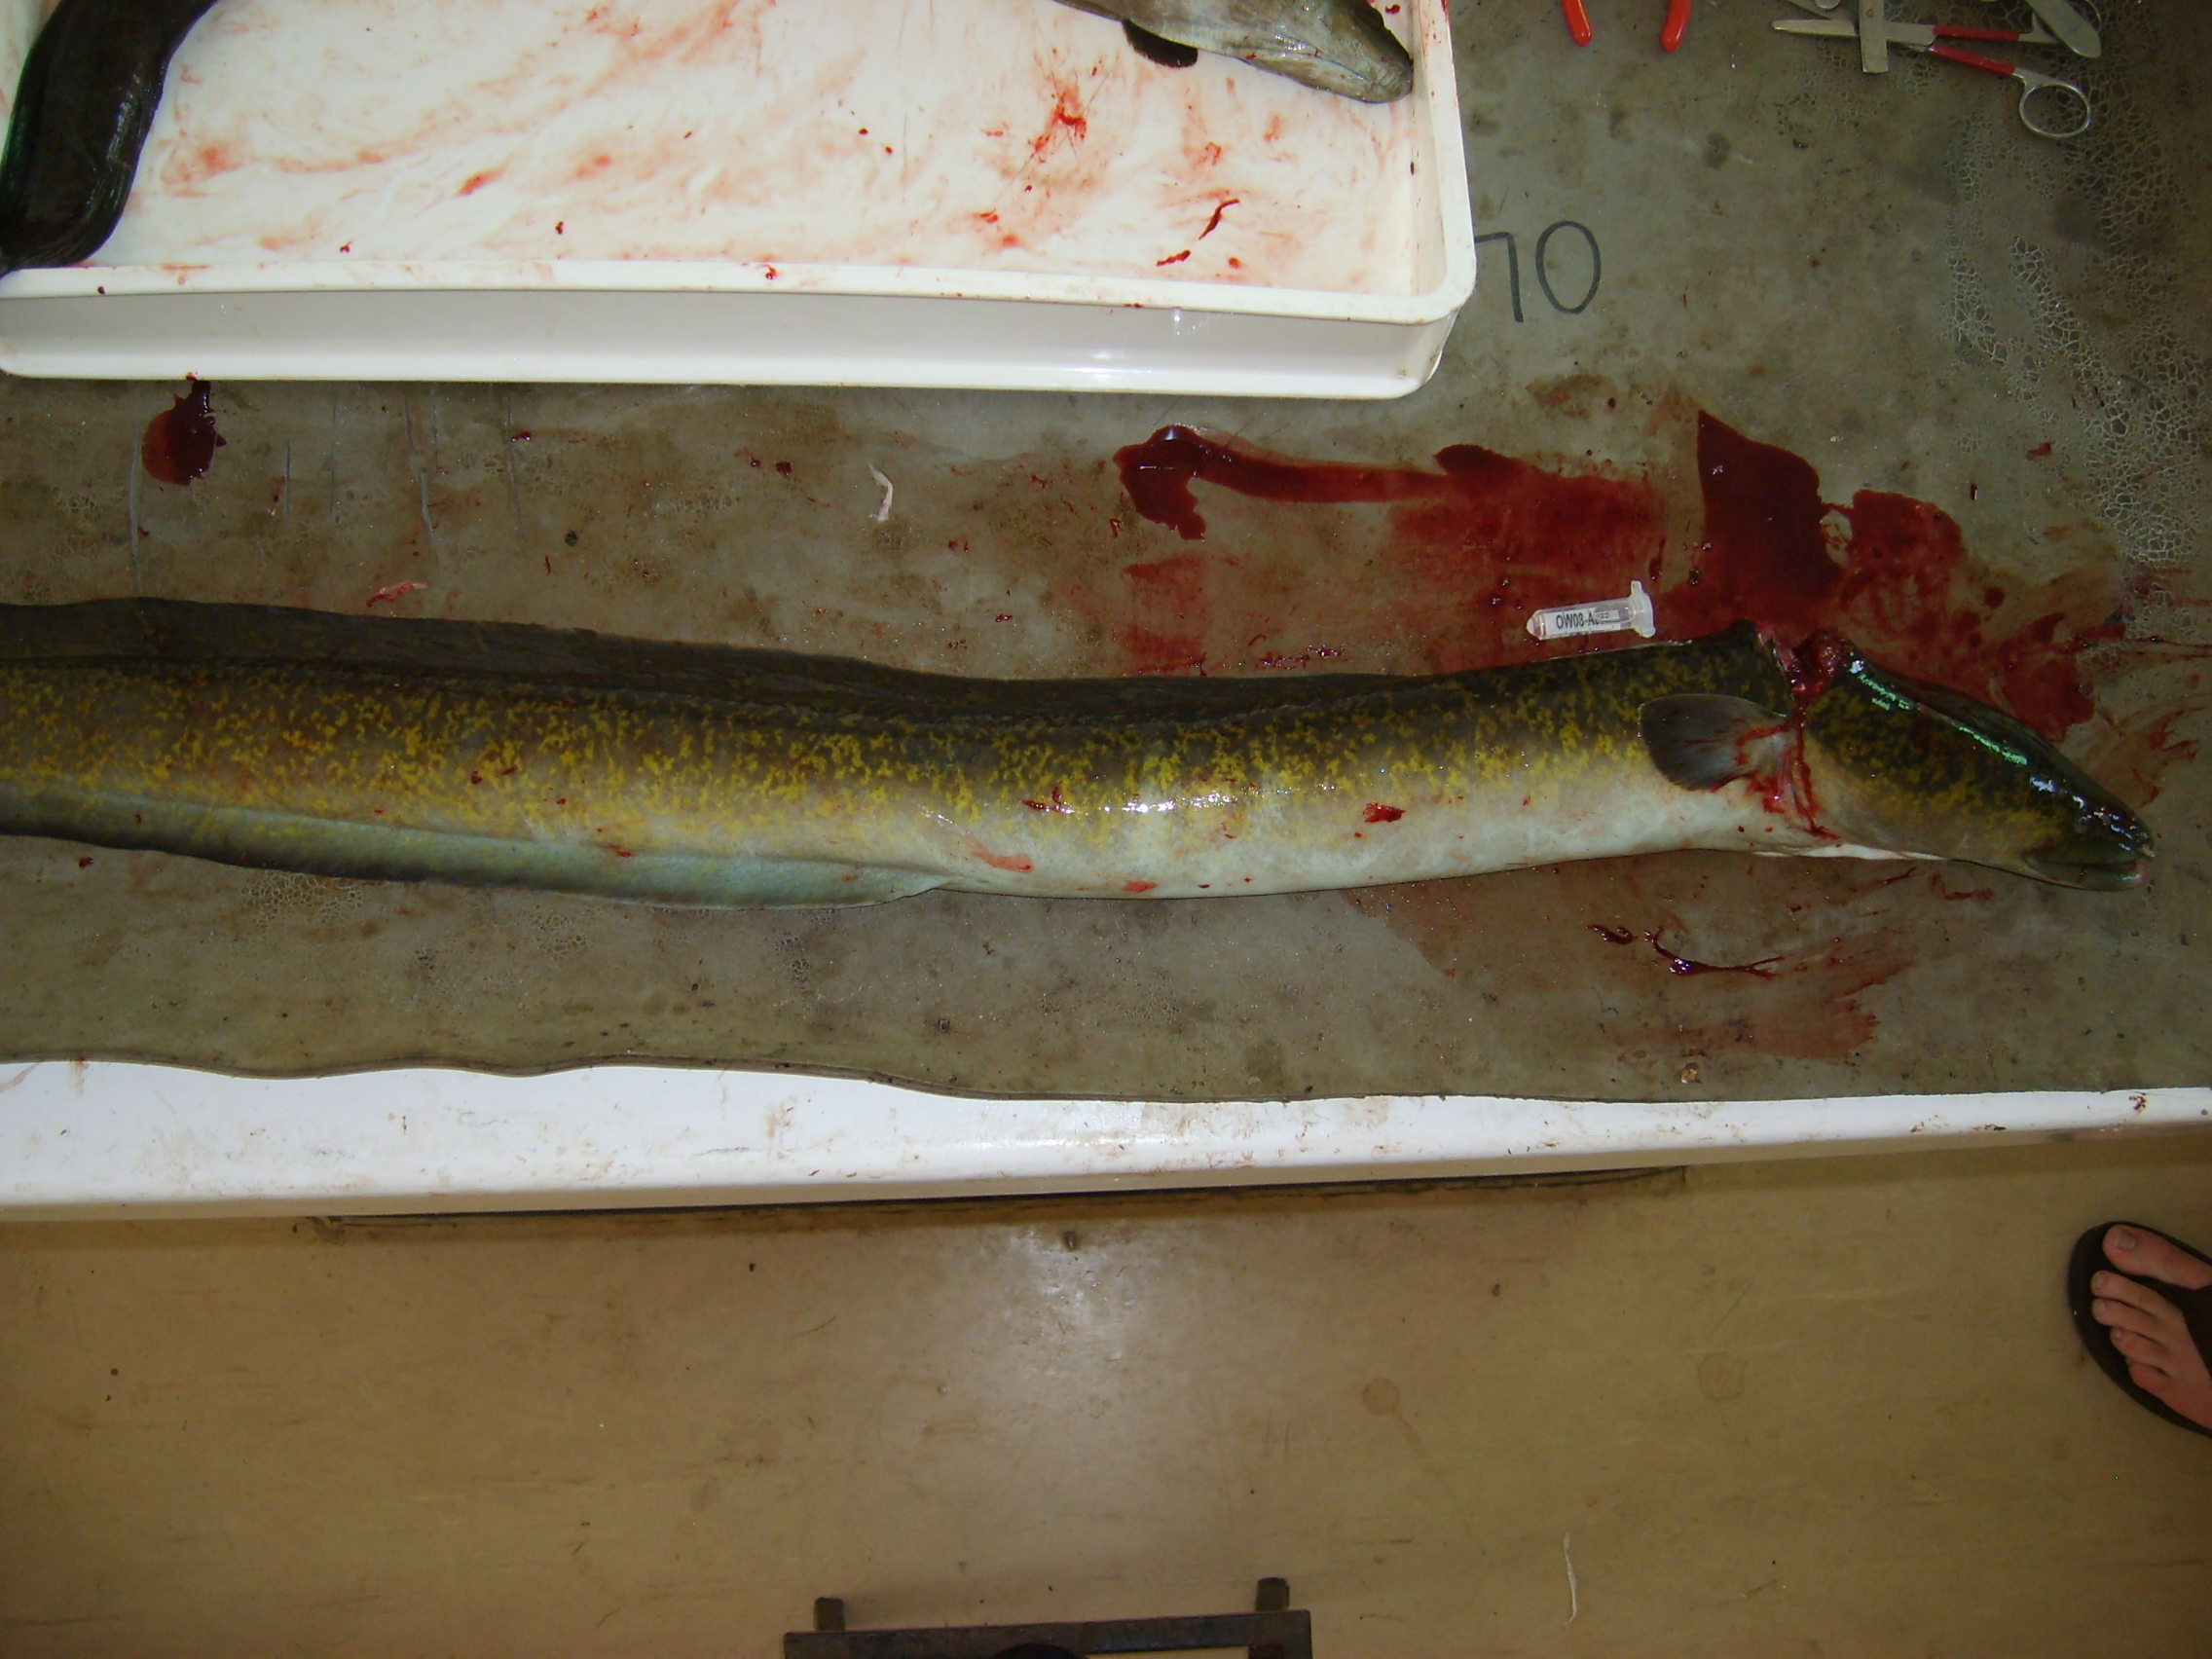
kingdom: Animalia
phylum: Chordata
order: Anguilliformes
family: Anguillidae
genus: Anguilla
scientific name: Anguilla marmorata
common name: Giant mottled eel
